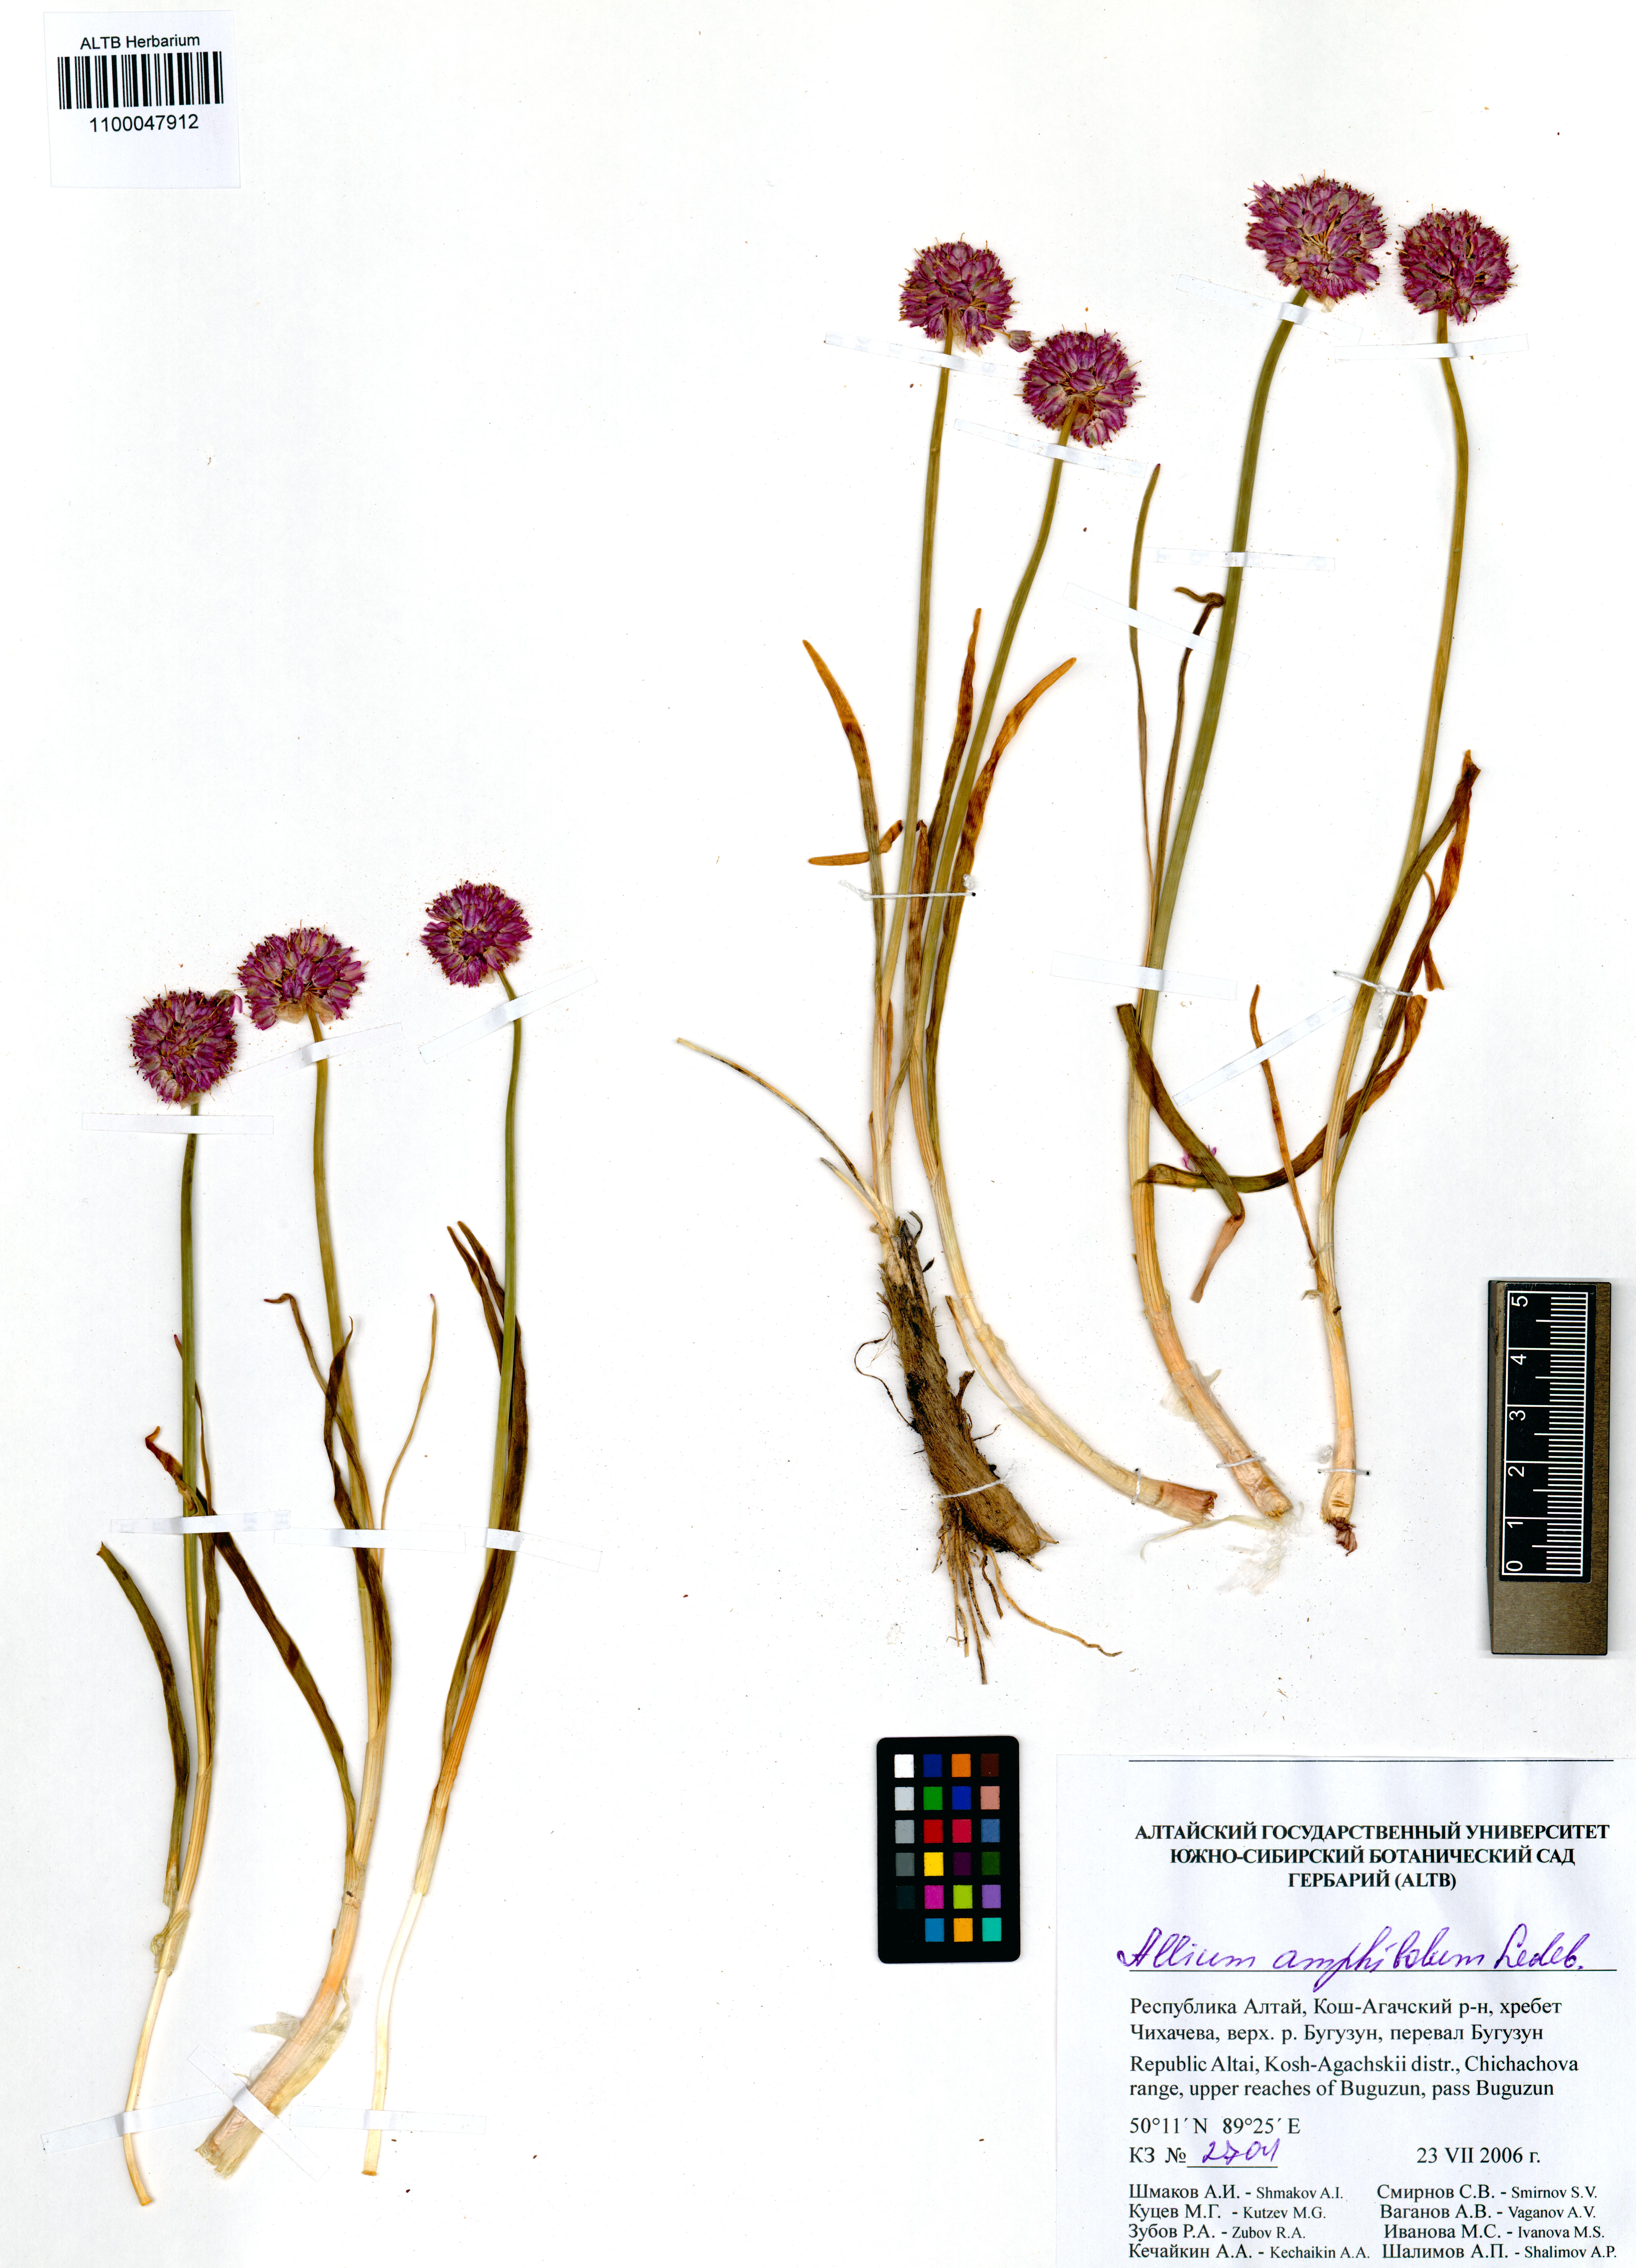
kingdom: Plantae
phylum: Tracheophyta
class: Liliopsida
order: Asparagales
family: Amaryllidaceae
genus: Allium
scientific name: Allium amphibolum
